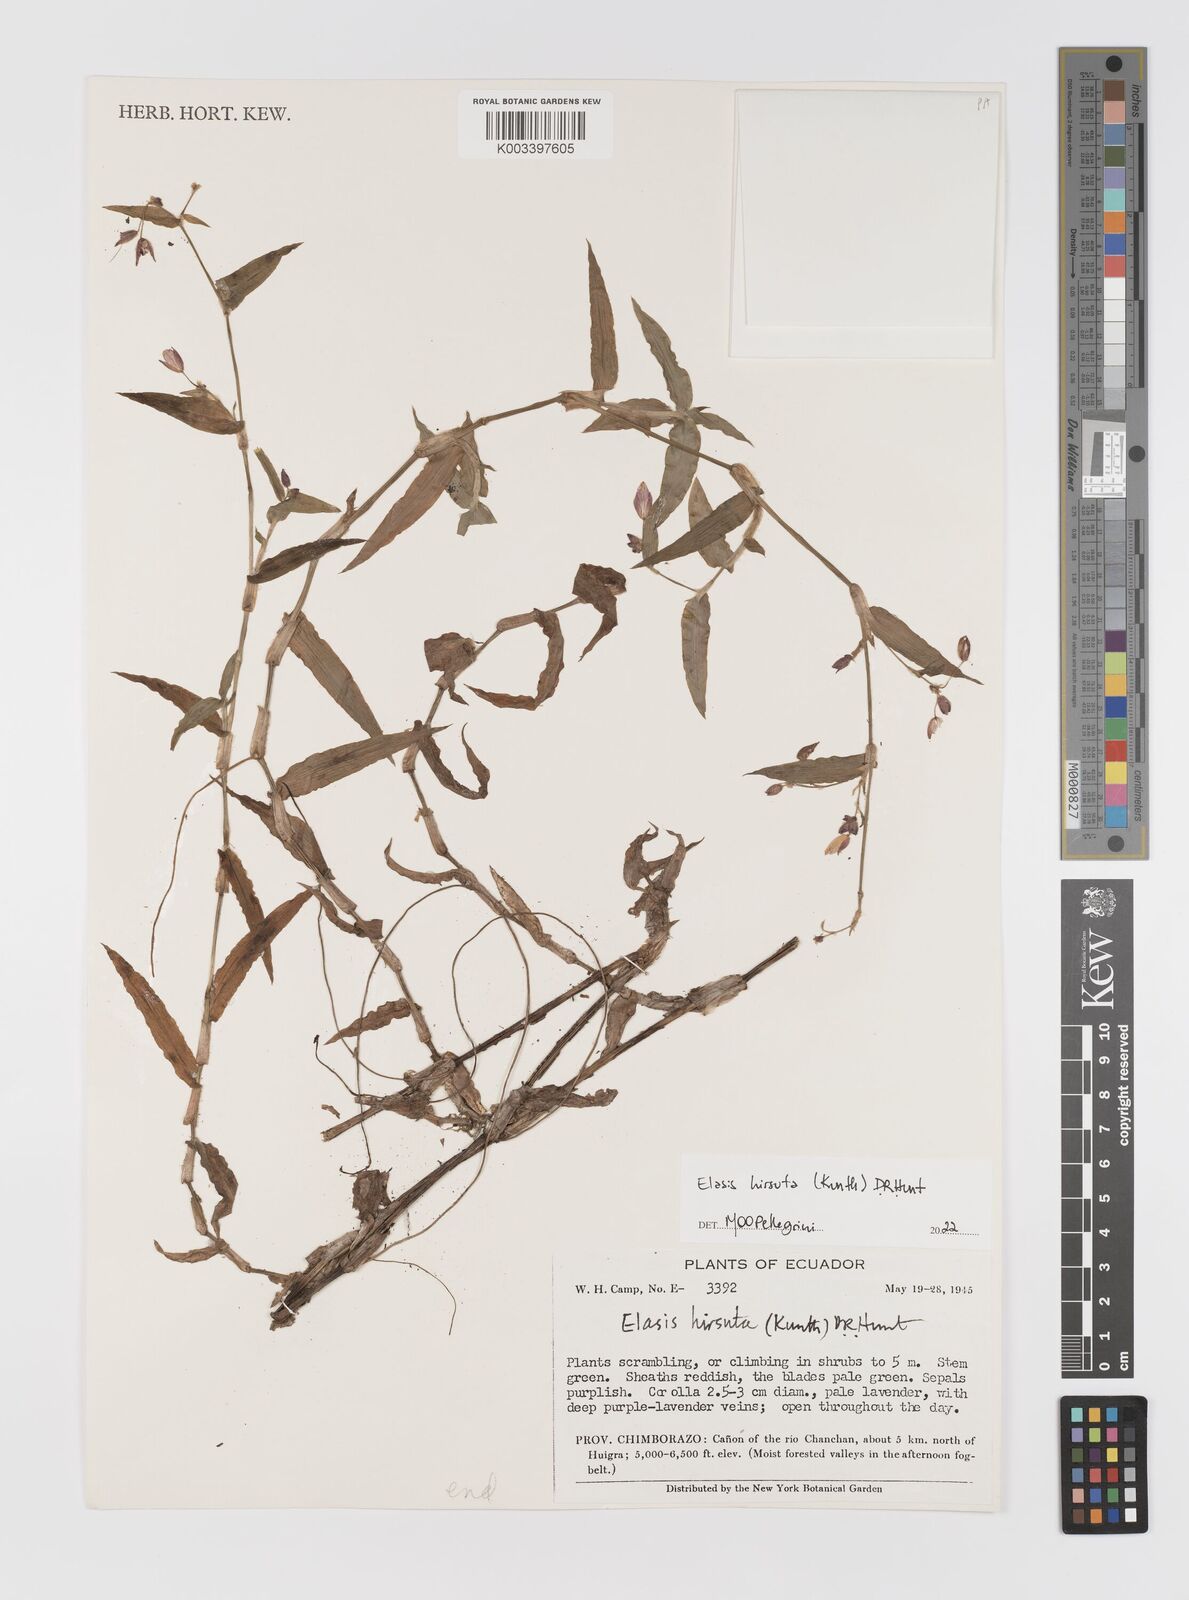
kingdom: Plantae
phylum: Tracheophyta
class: Liliopsida
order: Commelinales
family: Commelinaceae
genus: Elasis
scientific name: Elasis hirsuta
